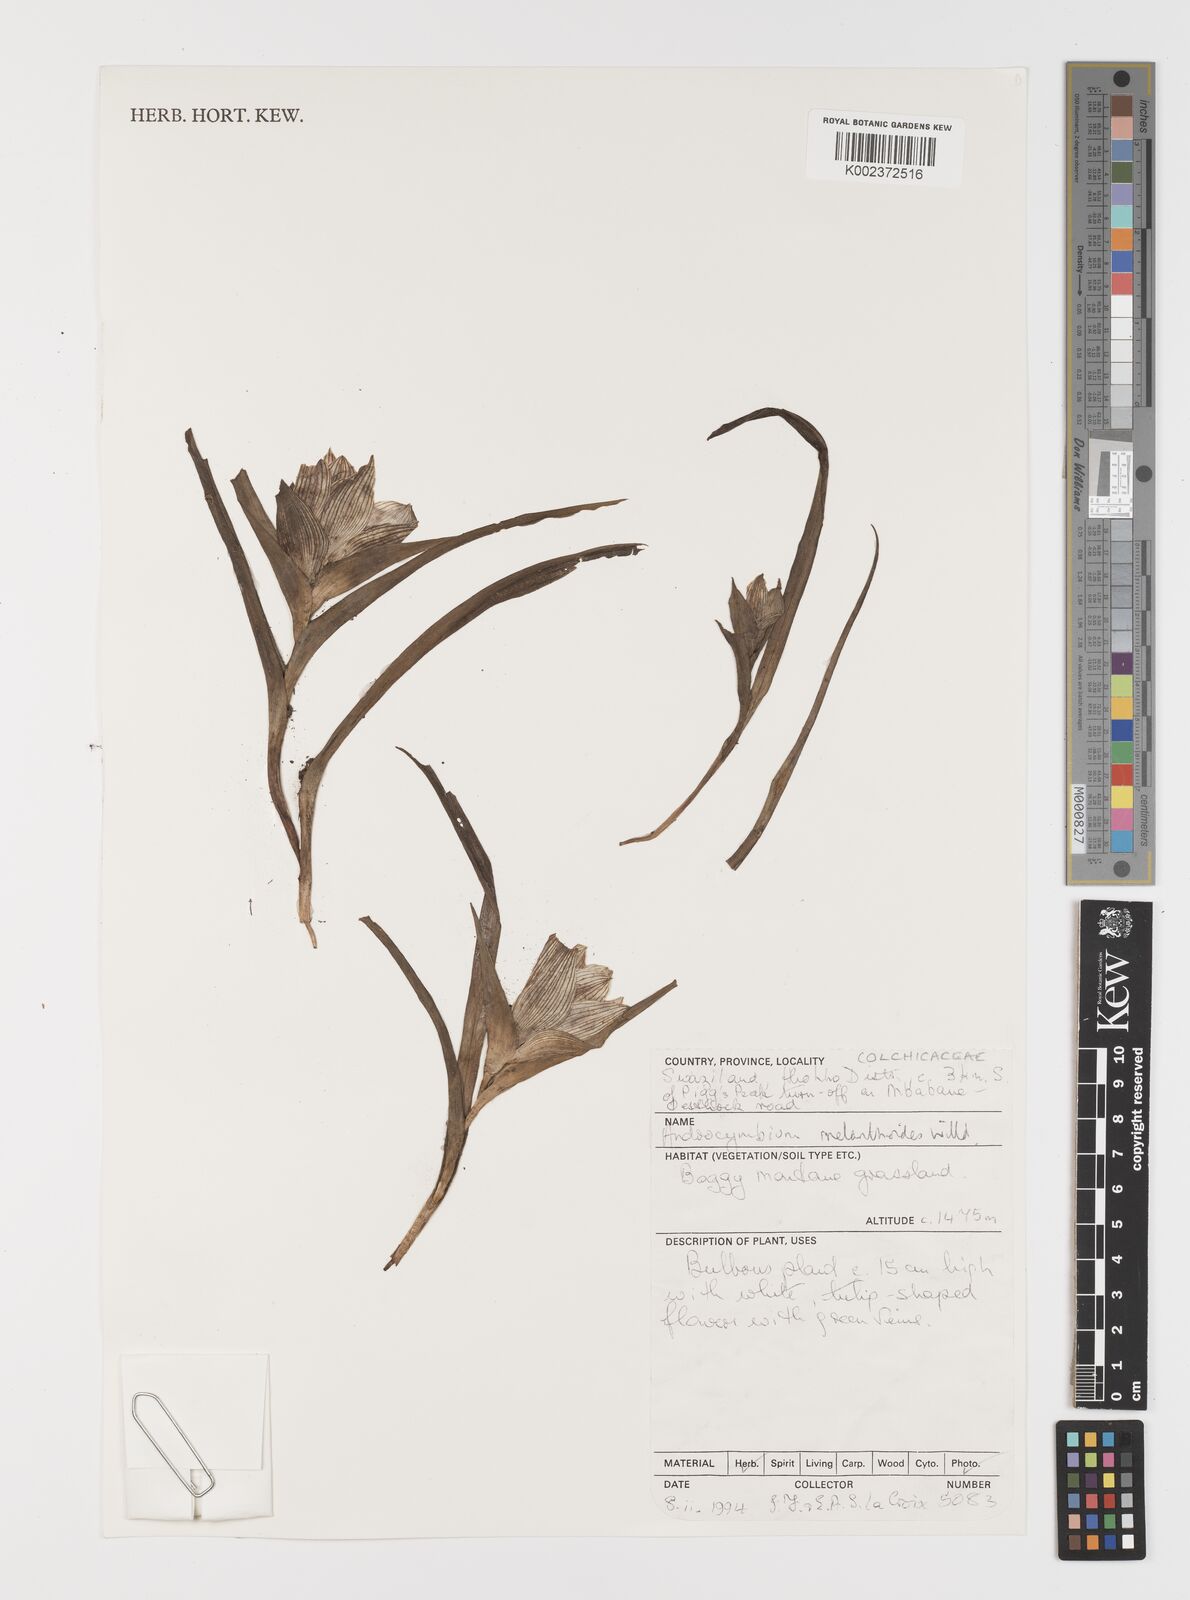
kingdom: Plantae
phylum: Tracheophyta
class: Liliopsida
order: Liliales
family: Colchicaceae
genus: Colchicum
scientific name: Colchicum melanthioides
